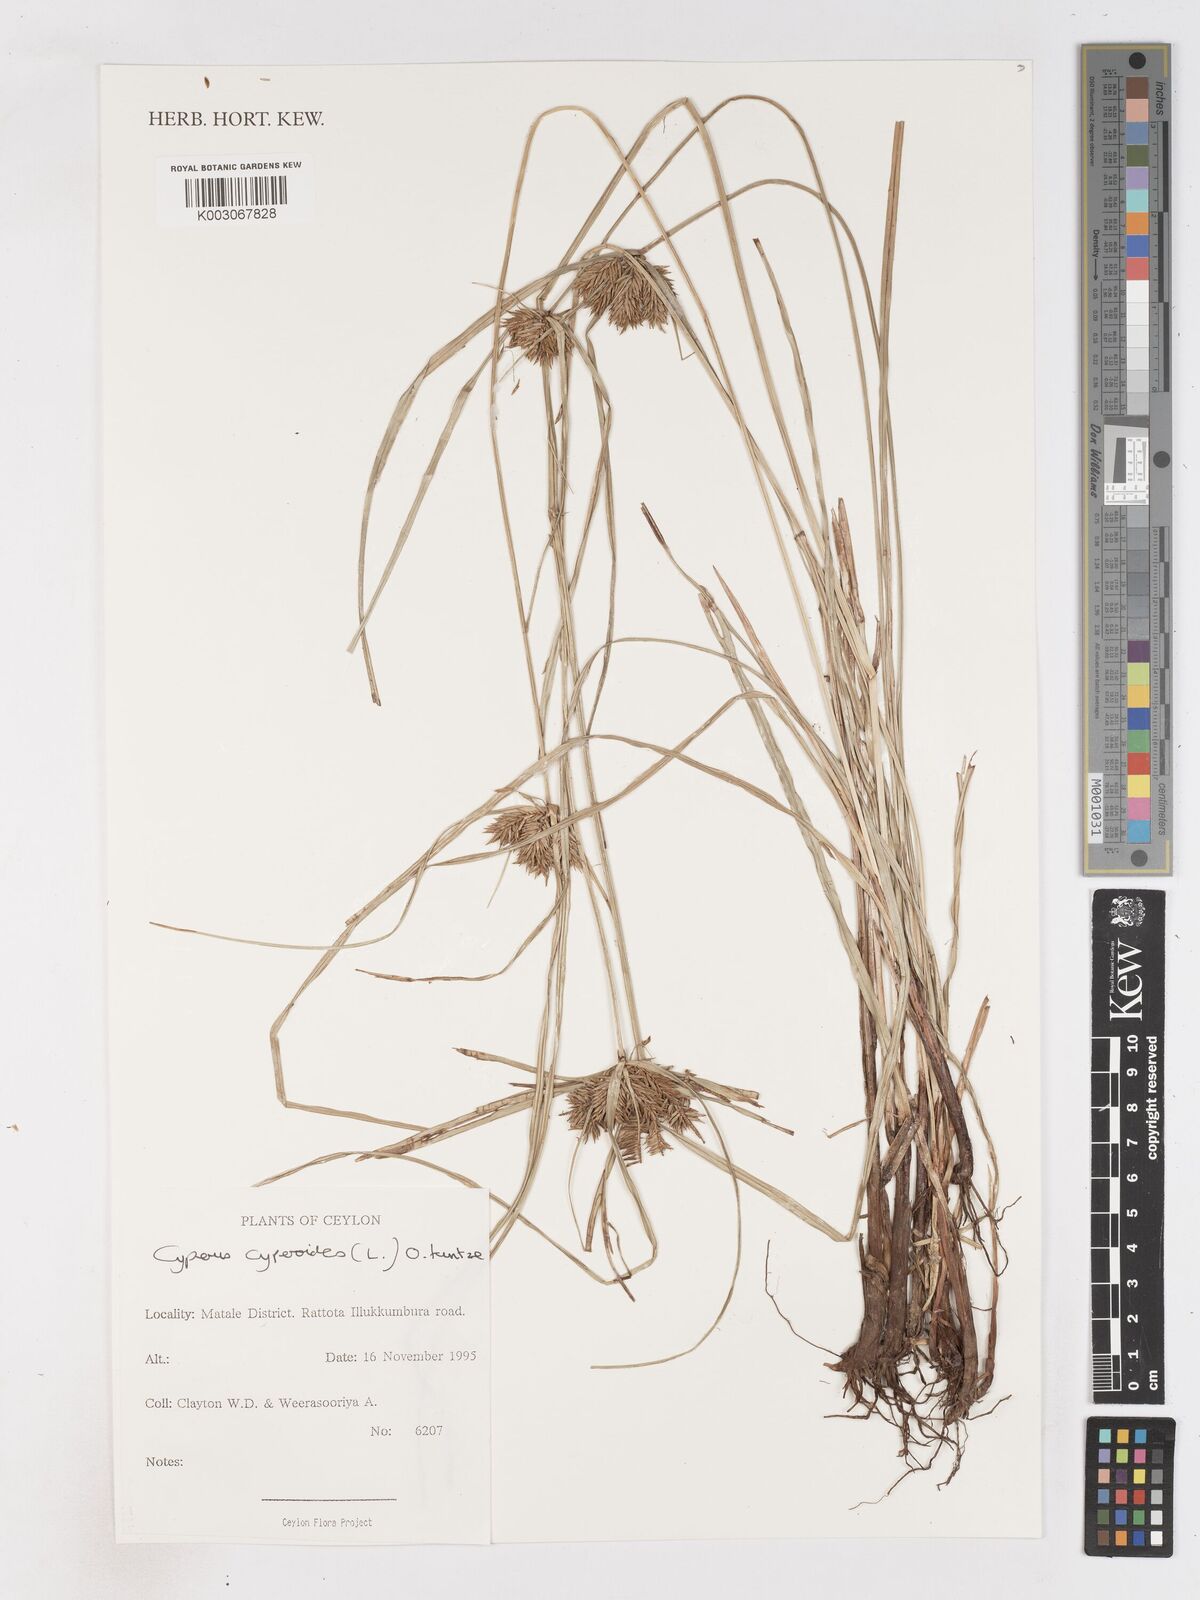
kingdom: Plantae
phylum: Tracheophyta
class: Liliopsida
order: Poales
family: Cyperaceae
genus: Cyperus
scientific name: Cyperus cyperoides
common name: Pacific island flat sedge
